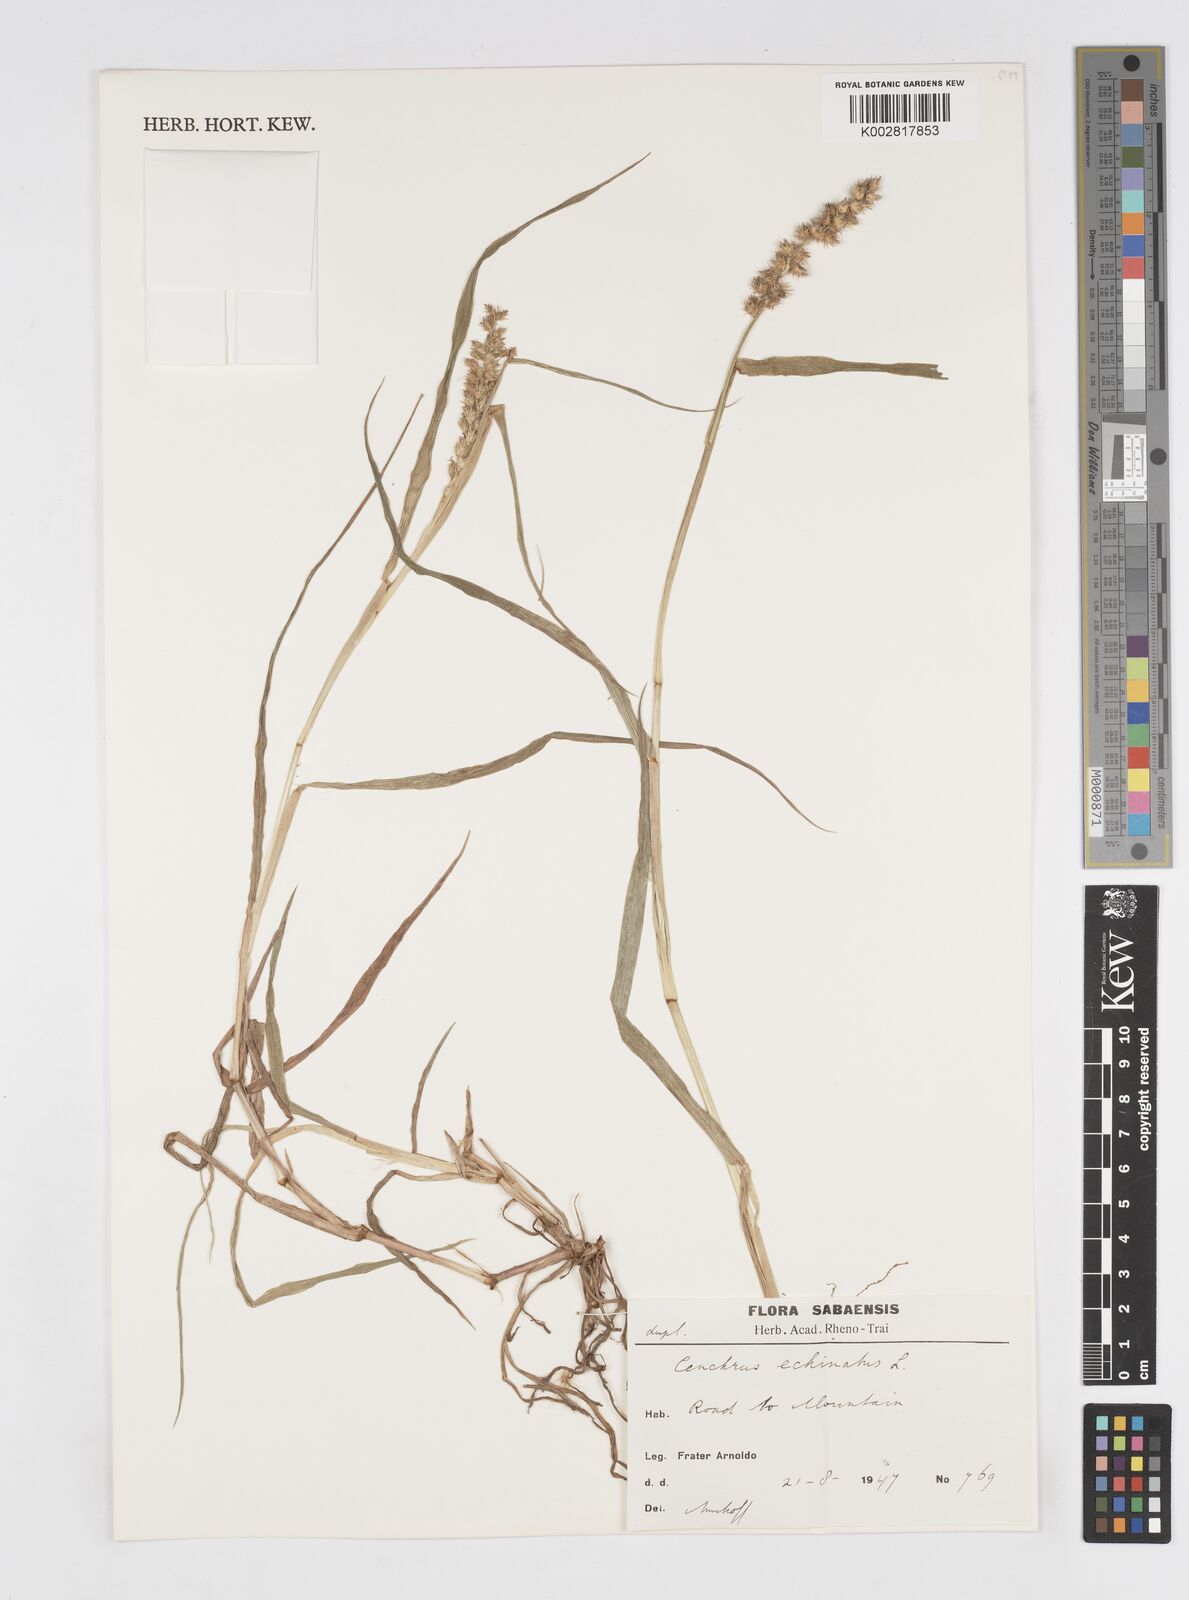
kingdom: Plantae
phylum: Tracheophyta
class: Liliopsida
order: Poales
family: Poaceae
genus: Cenchrus
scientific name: Cenchrus
